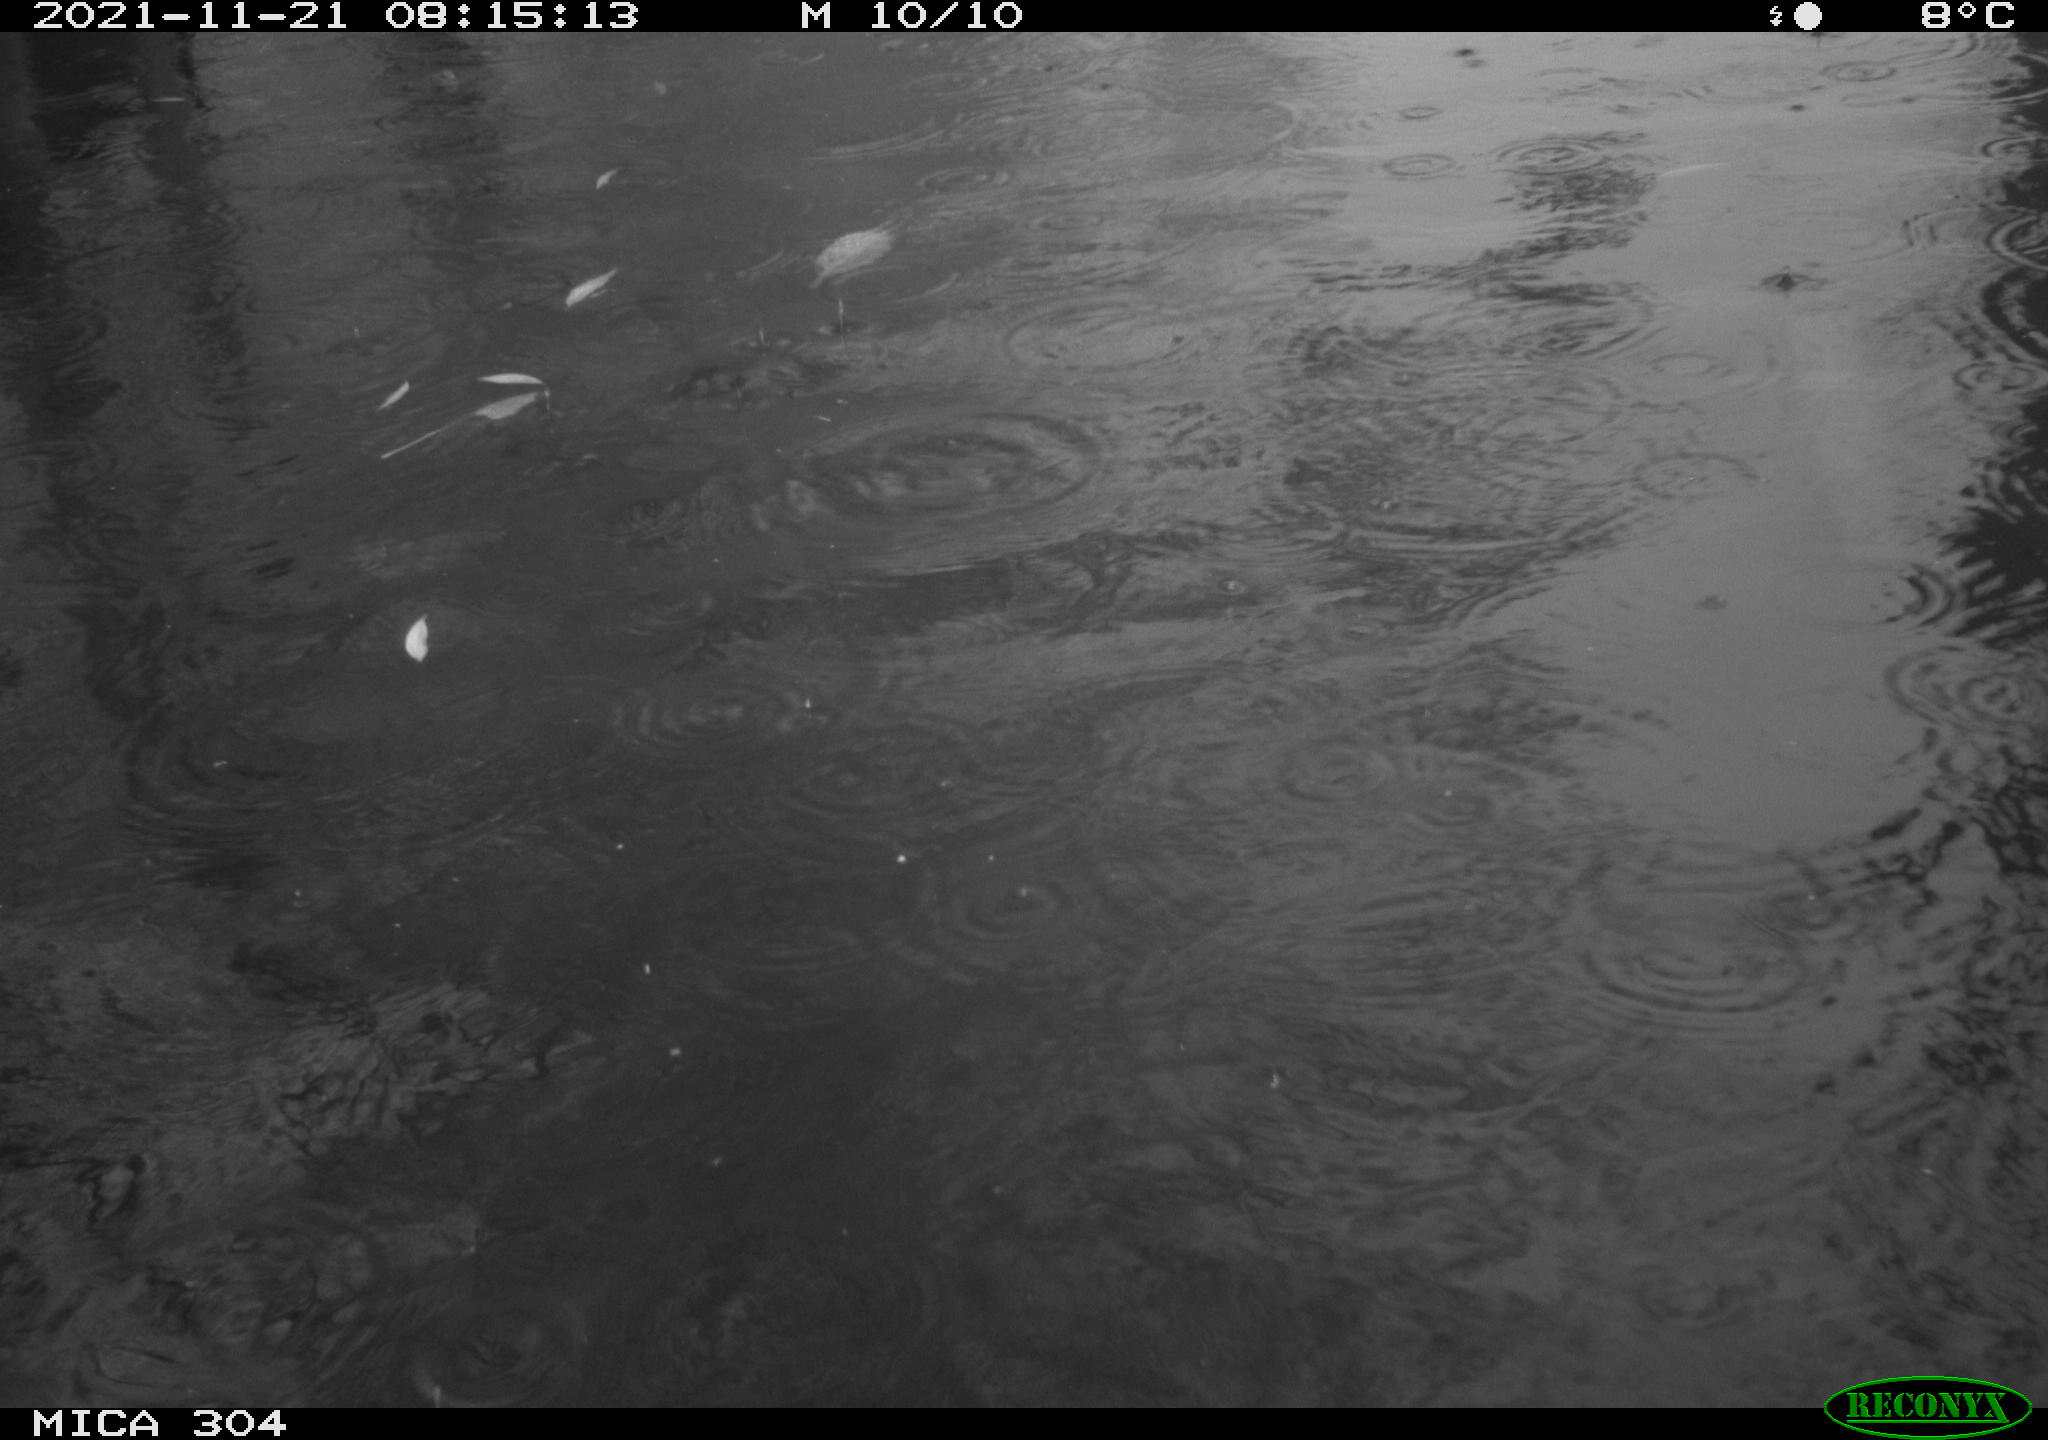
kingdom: Animalia
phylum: Chordata
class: Aves
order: Anseriformes
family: Anatidae
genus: Anas
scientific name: Anas platyrhynchos
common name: Mallard
